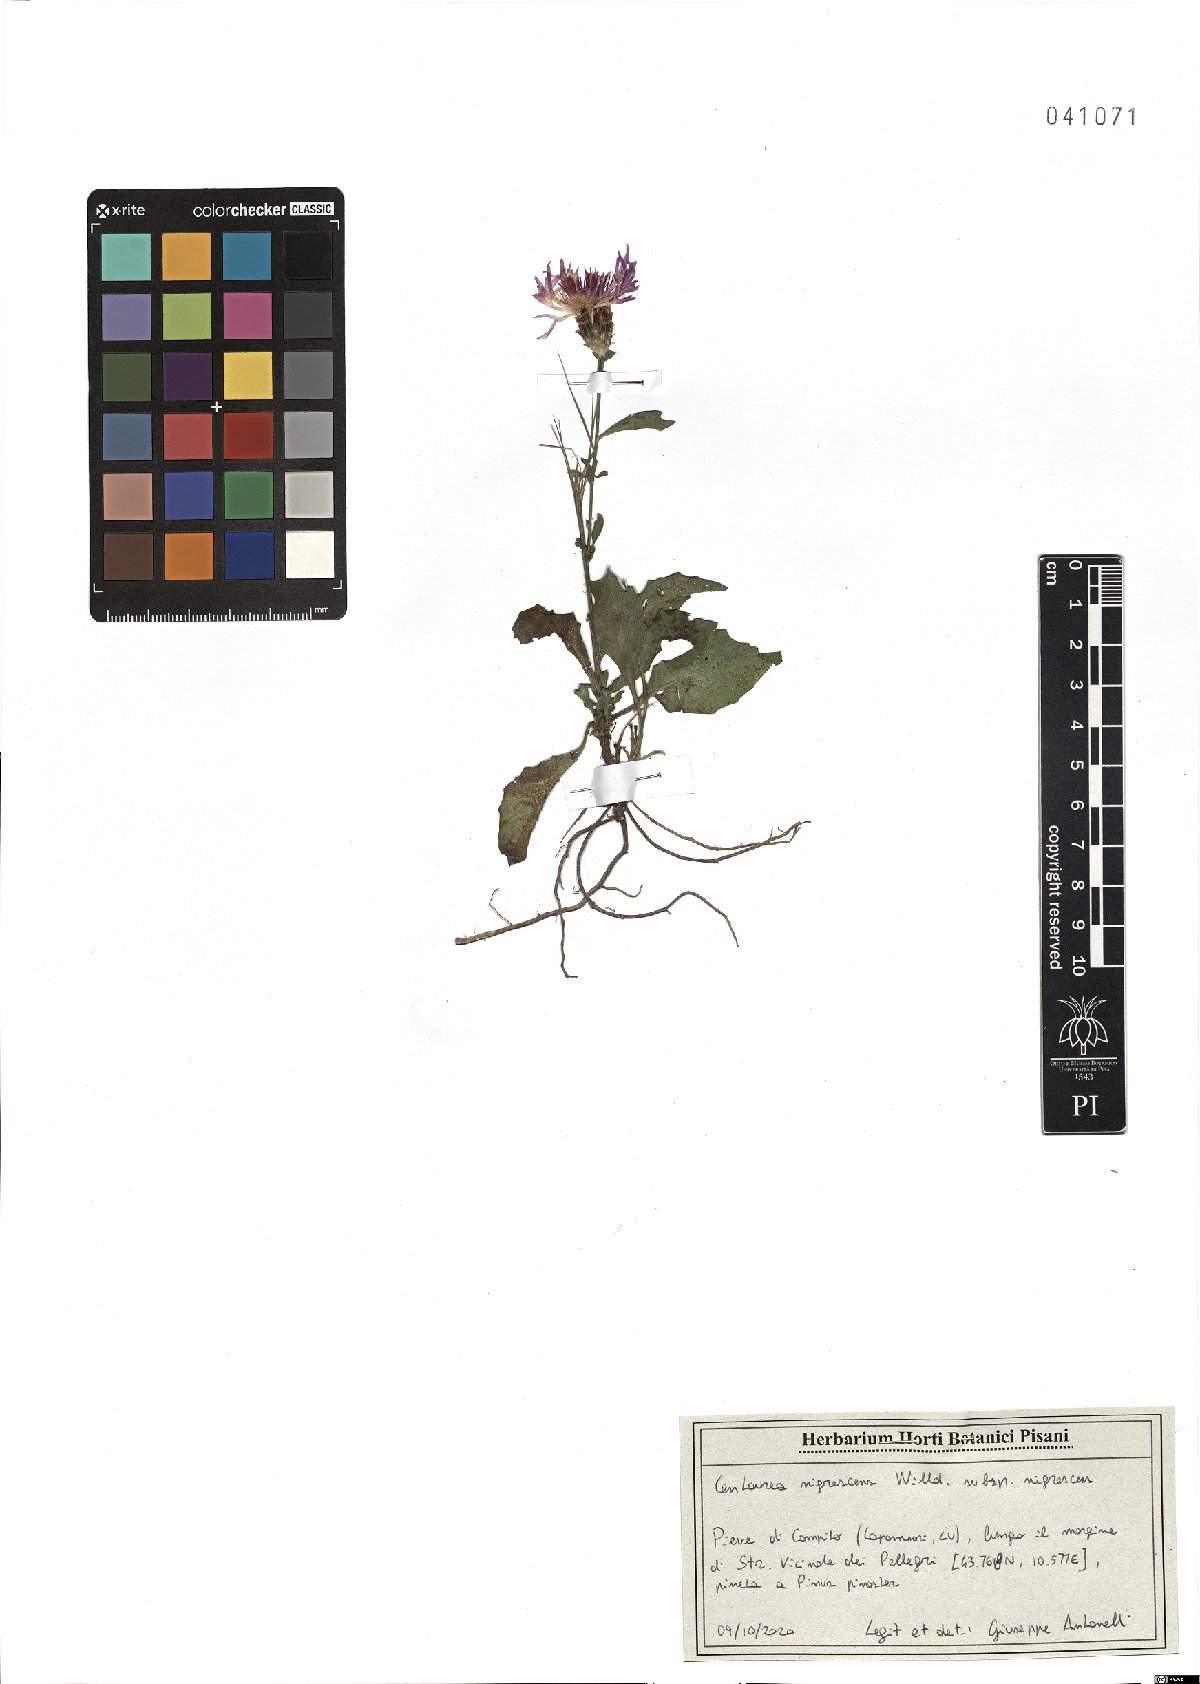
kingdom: Plantae
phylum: Tracheophyta
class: Magnoliopsida
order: Asterales
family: Asteraceae
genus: Centaurea
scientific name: Centaurea nigrescens
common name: Tyrol knapweed
